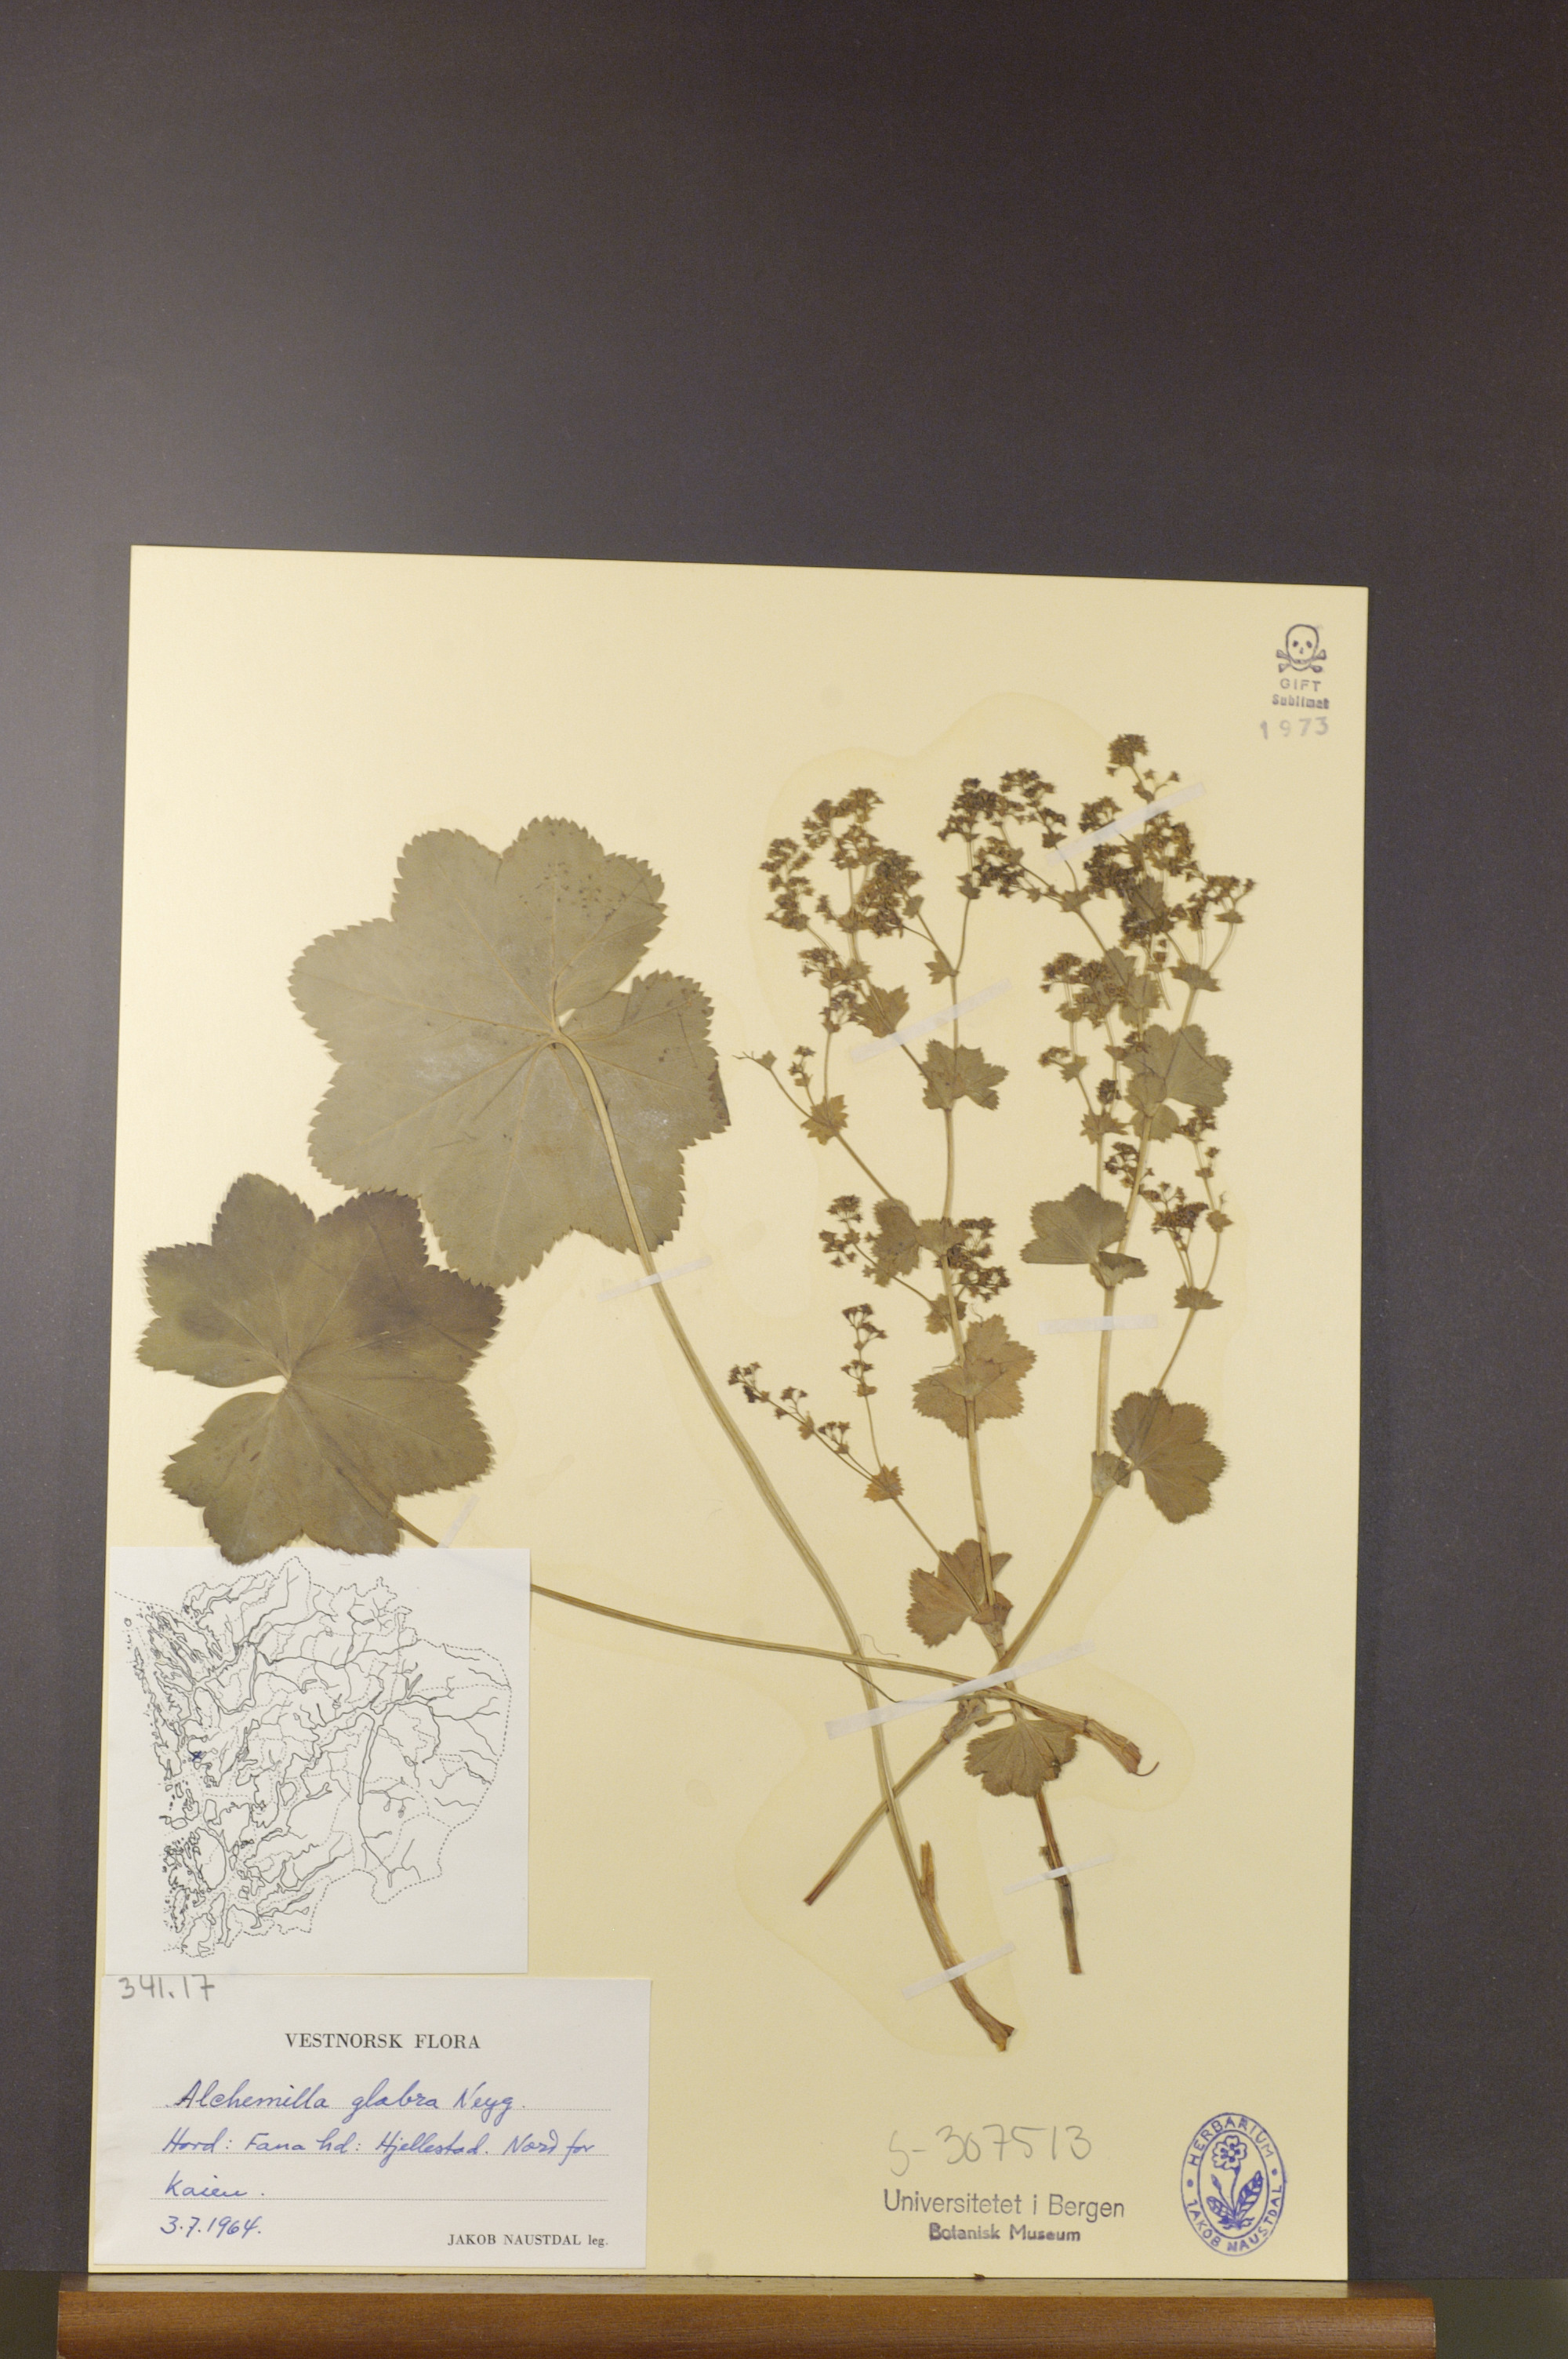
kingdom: Plantae
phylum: Tracheophyta
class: Magnoliopsida
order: Rosales
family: Rosaceae
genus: Alchemilla
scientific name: Alchemilla glabra
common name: Smooth lady's-mantle
